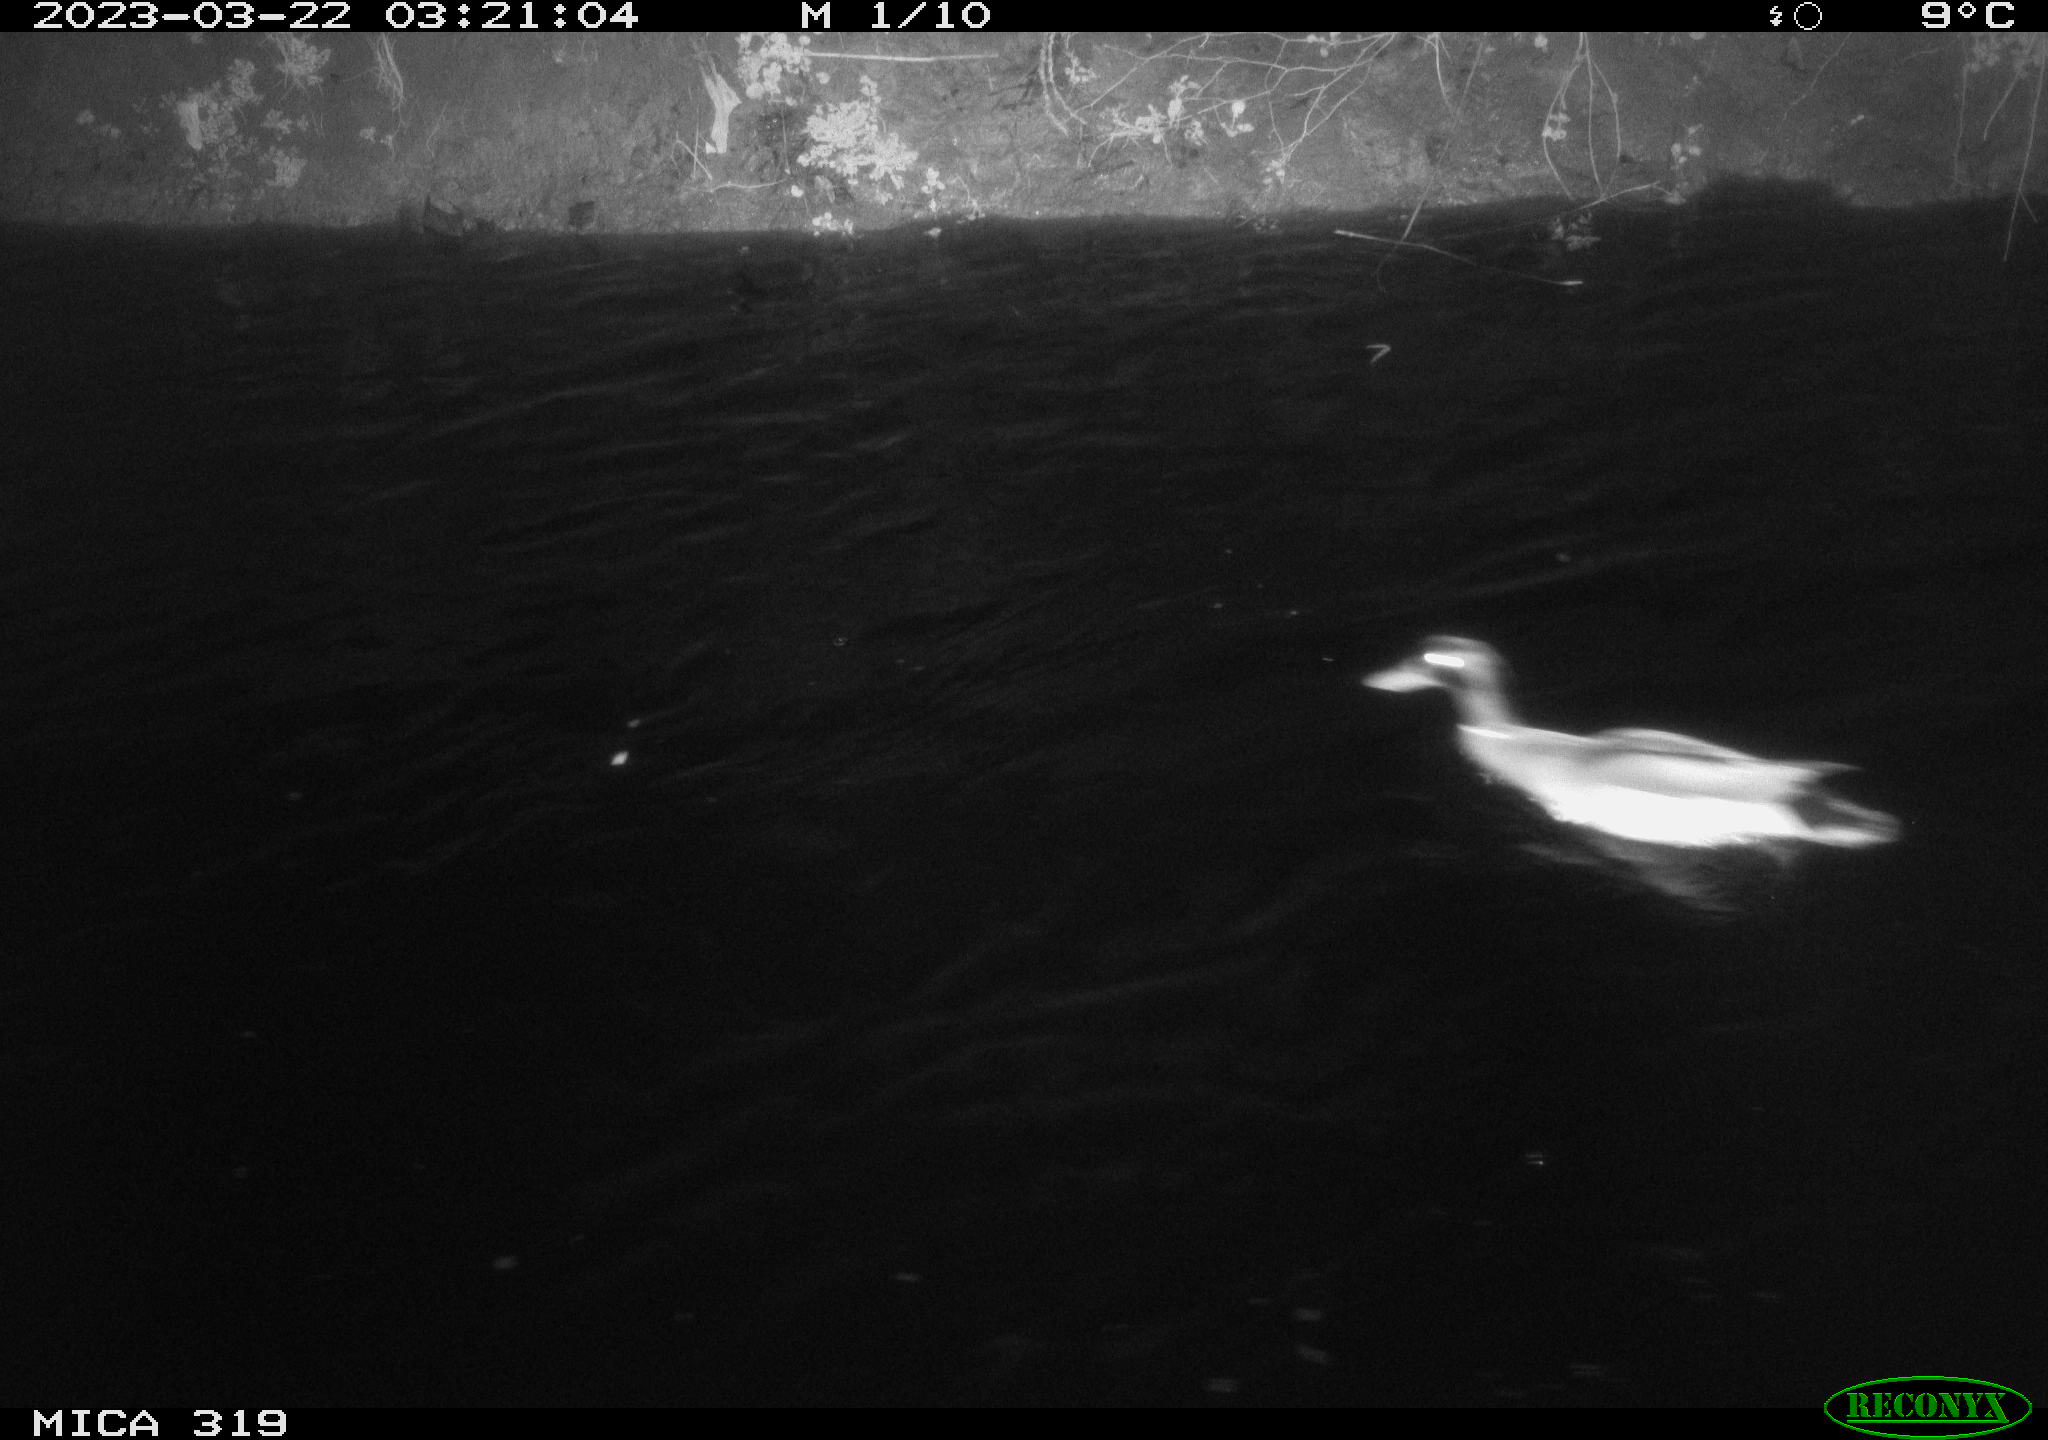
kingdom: Animalia
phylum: Chordata
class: Aves
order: Anseriformes
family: Anatidae
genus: Anas
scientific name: Anas
